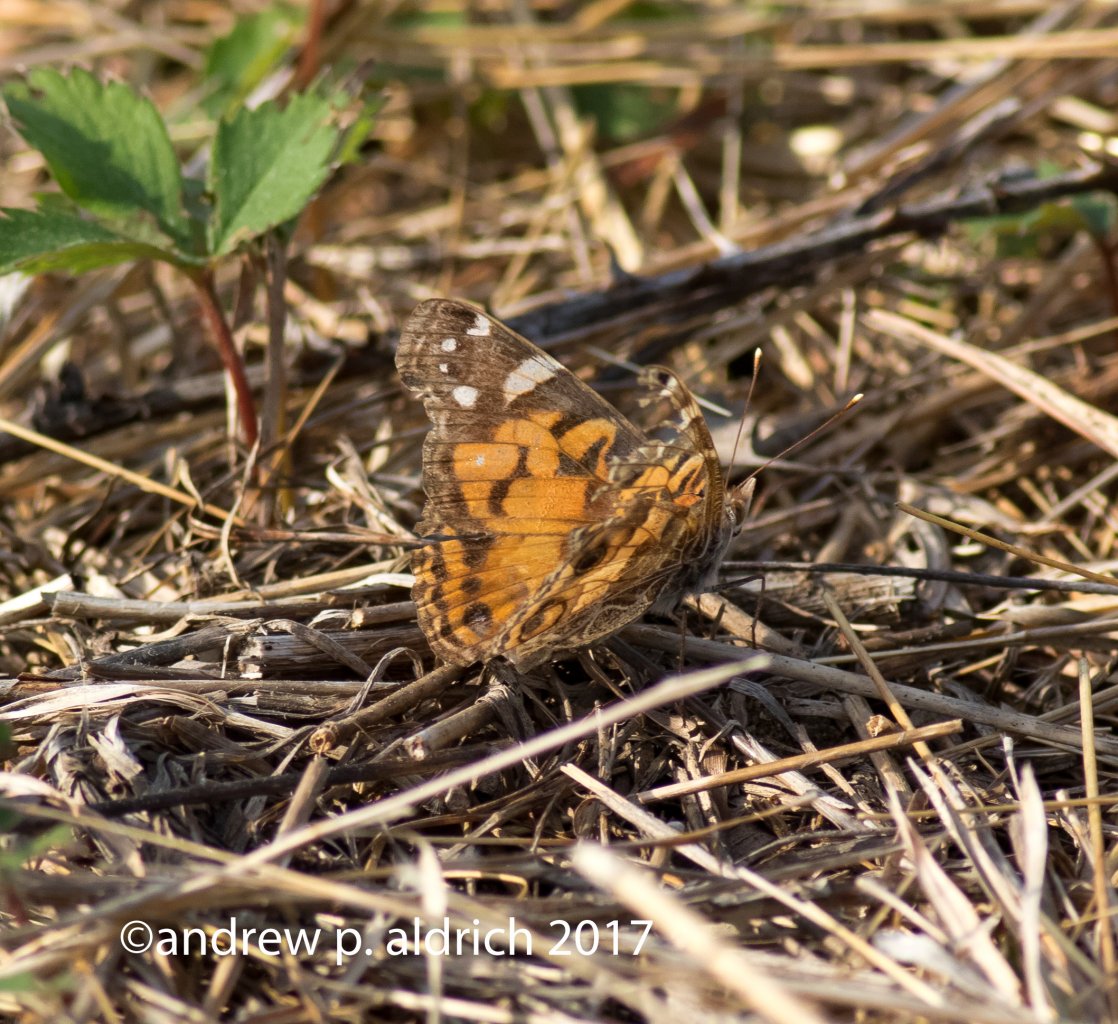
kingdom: Animalia
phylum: Arthropoda
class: Insecta
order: Lepidoptera
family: Nymphalidae
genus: Vanessa
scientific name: Vanessa virginiensis
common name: American Lady
